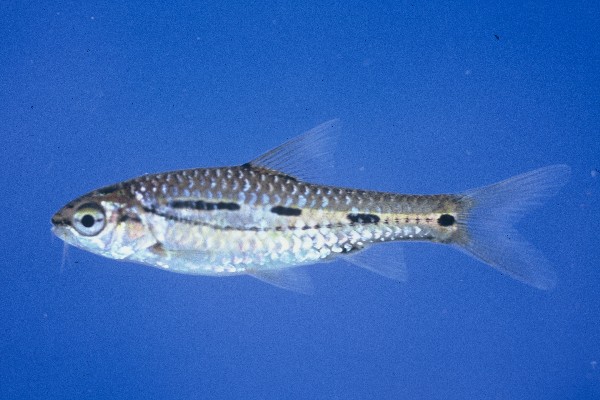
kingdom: Animalia
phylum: Chordata
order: Cypriniformes
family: Cyprinidae
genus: Enteromius
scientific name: Enteromius bifrenatus
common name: Hyphen barb
